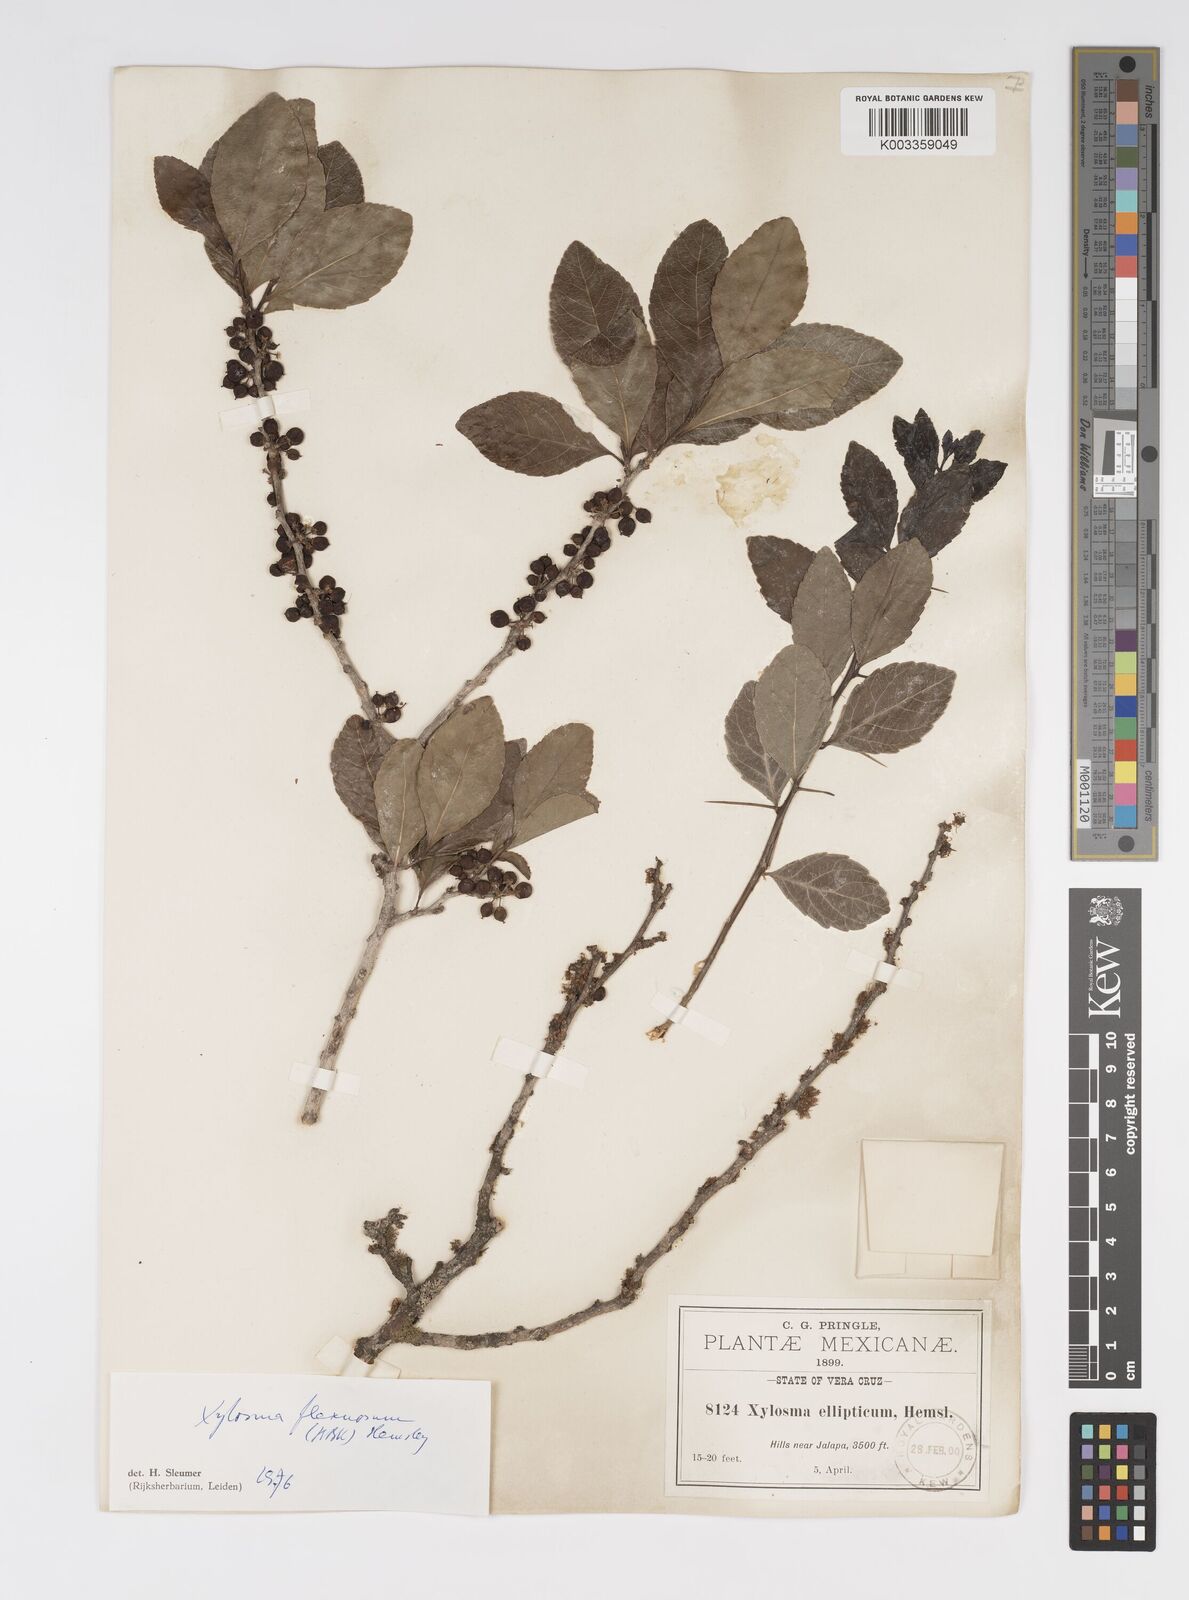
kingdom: Plantae
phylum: Tracheophyta
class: Magnoliopsida
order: Malpighiales
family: Salicaceae
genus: Xylosma
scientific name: Xylosma flexuosa
